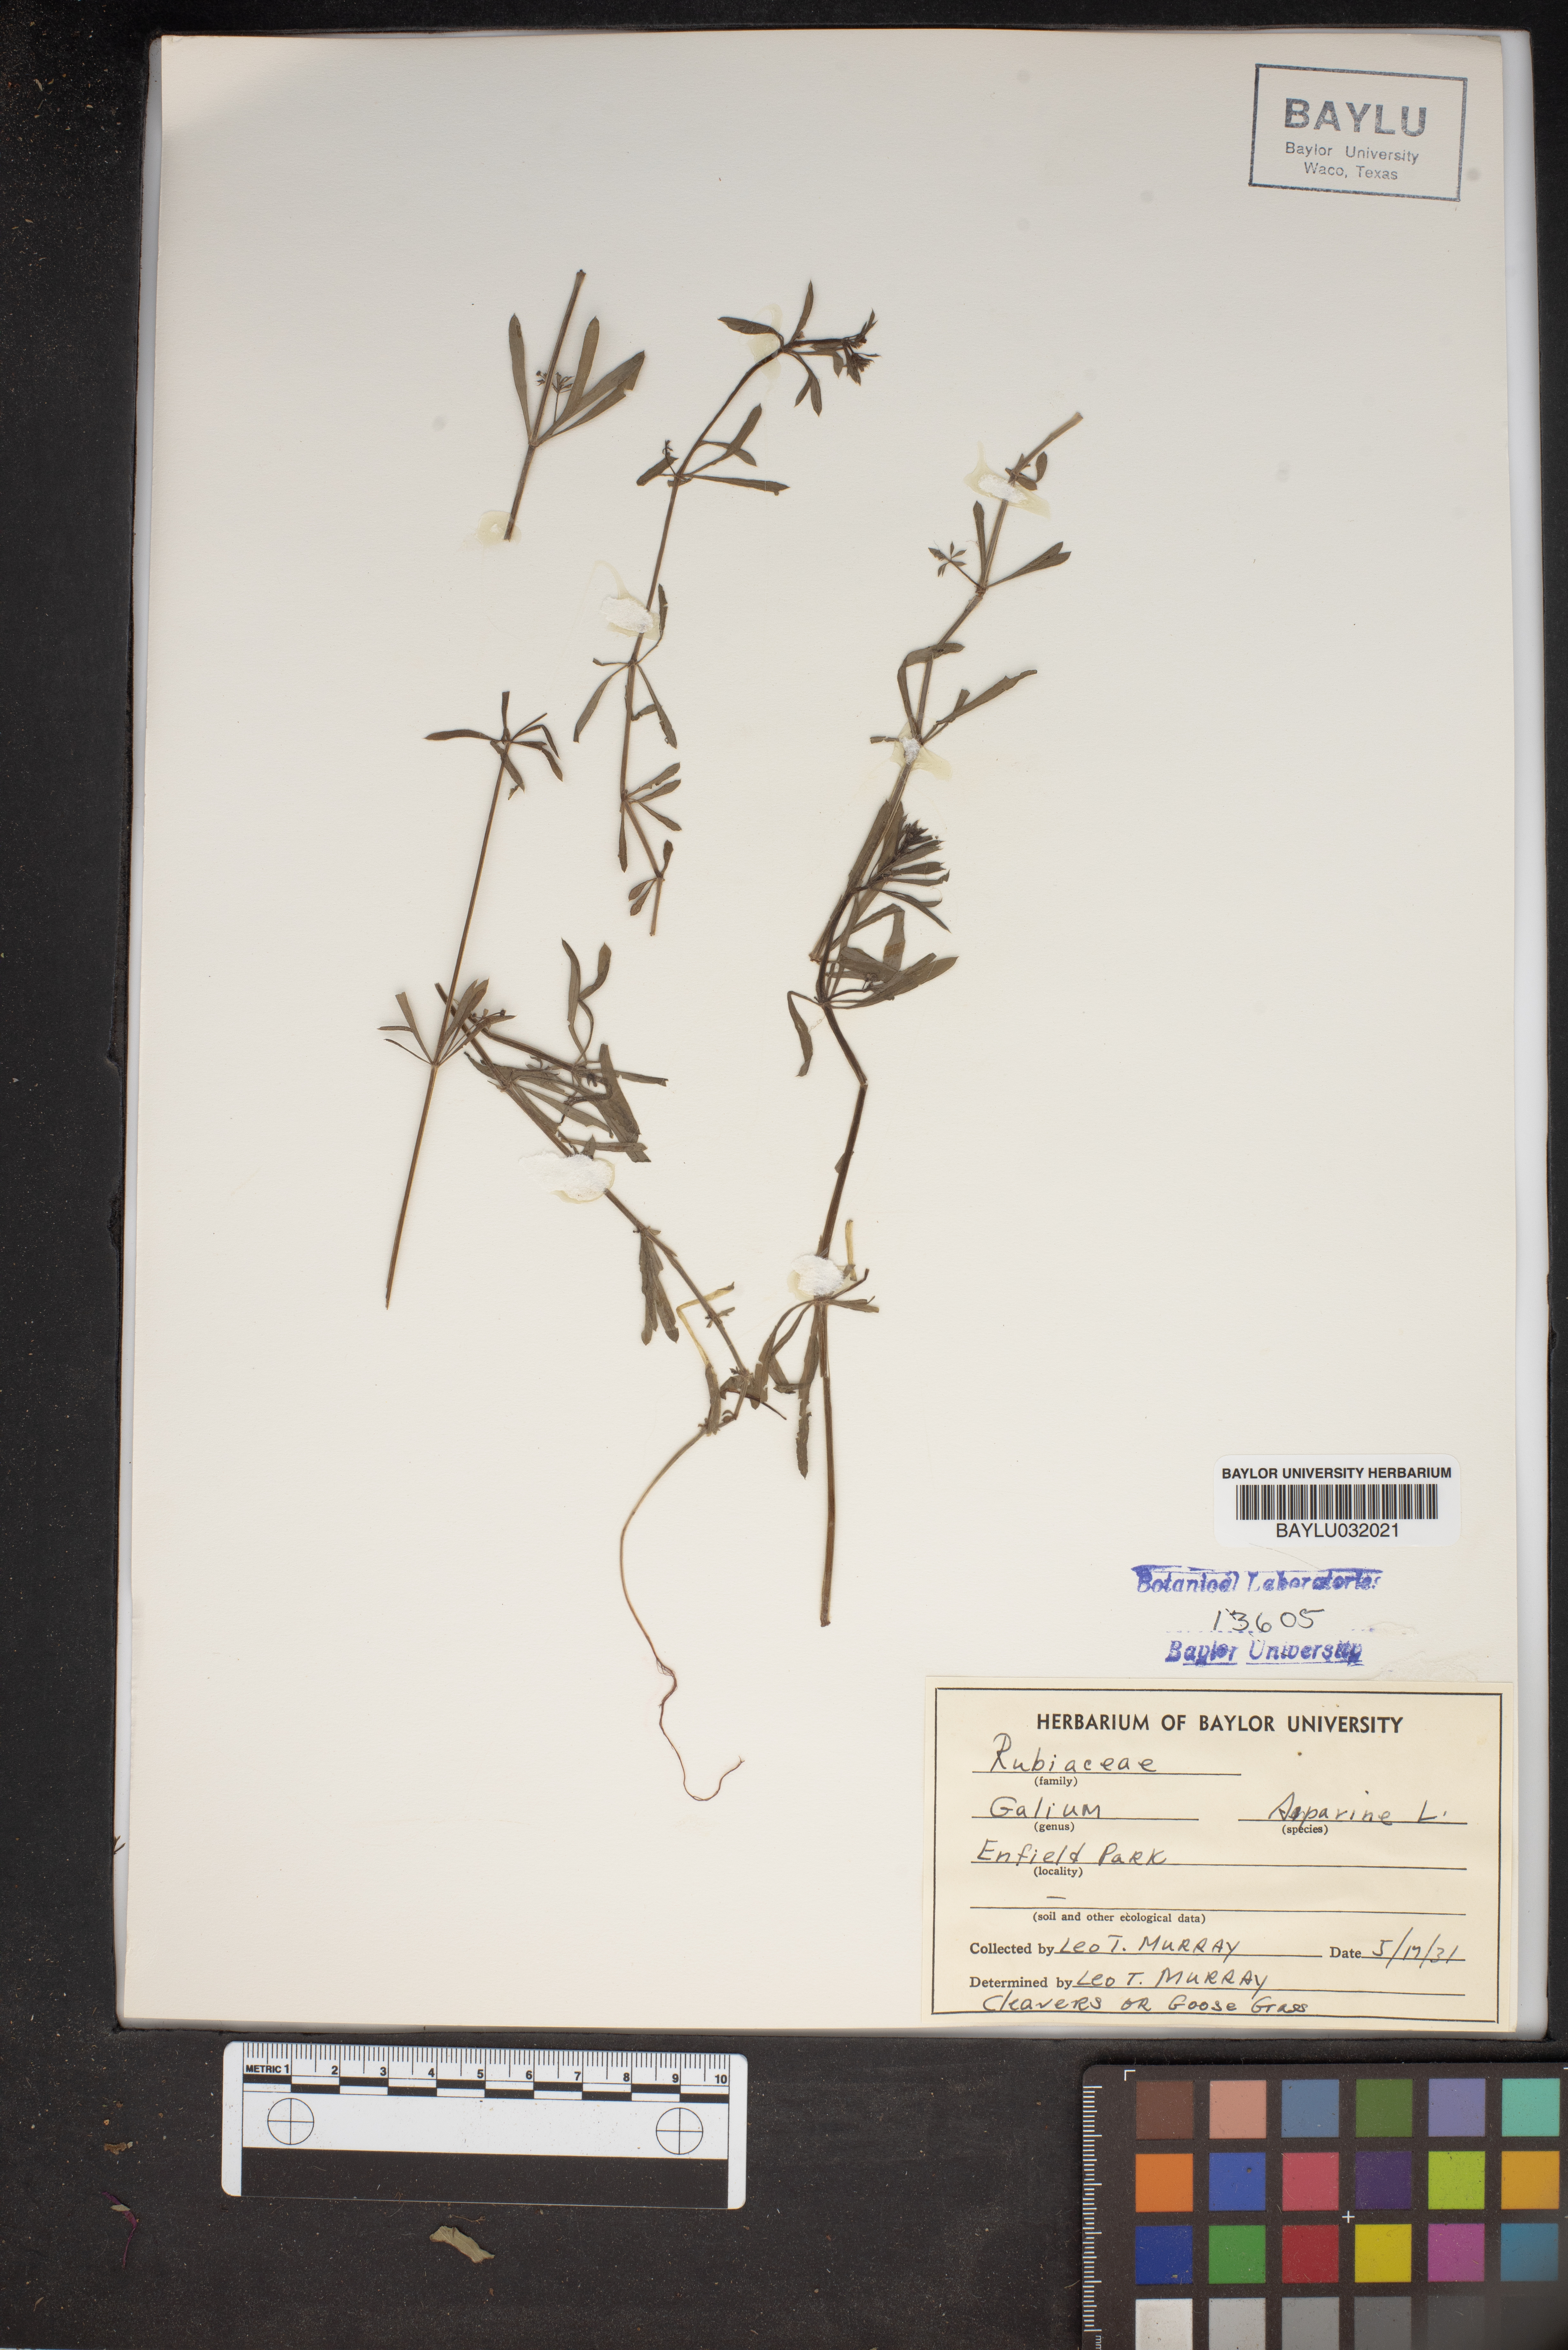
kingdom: Plantae
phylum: Tracheophyta
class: Magnoliopsida
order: Gentianales
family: Rubiaceae
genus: Galium
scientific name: Galium aparine
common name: Cleavers
